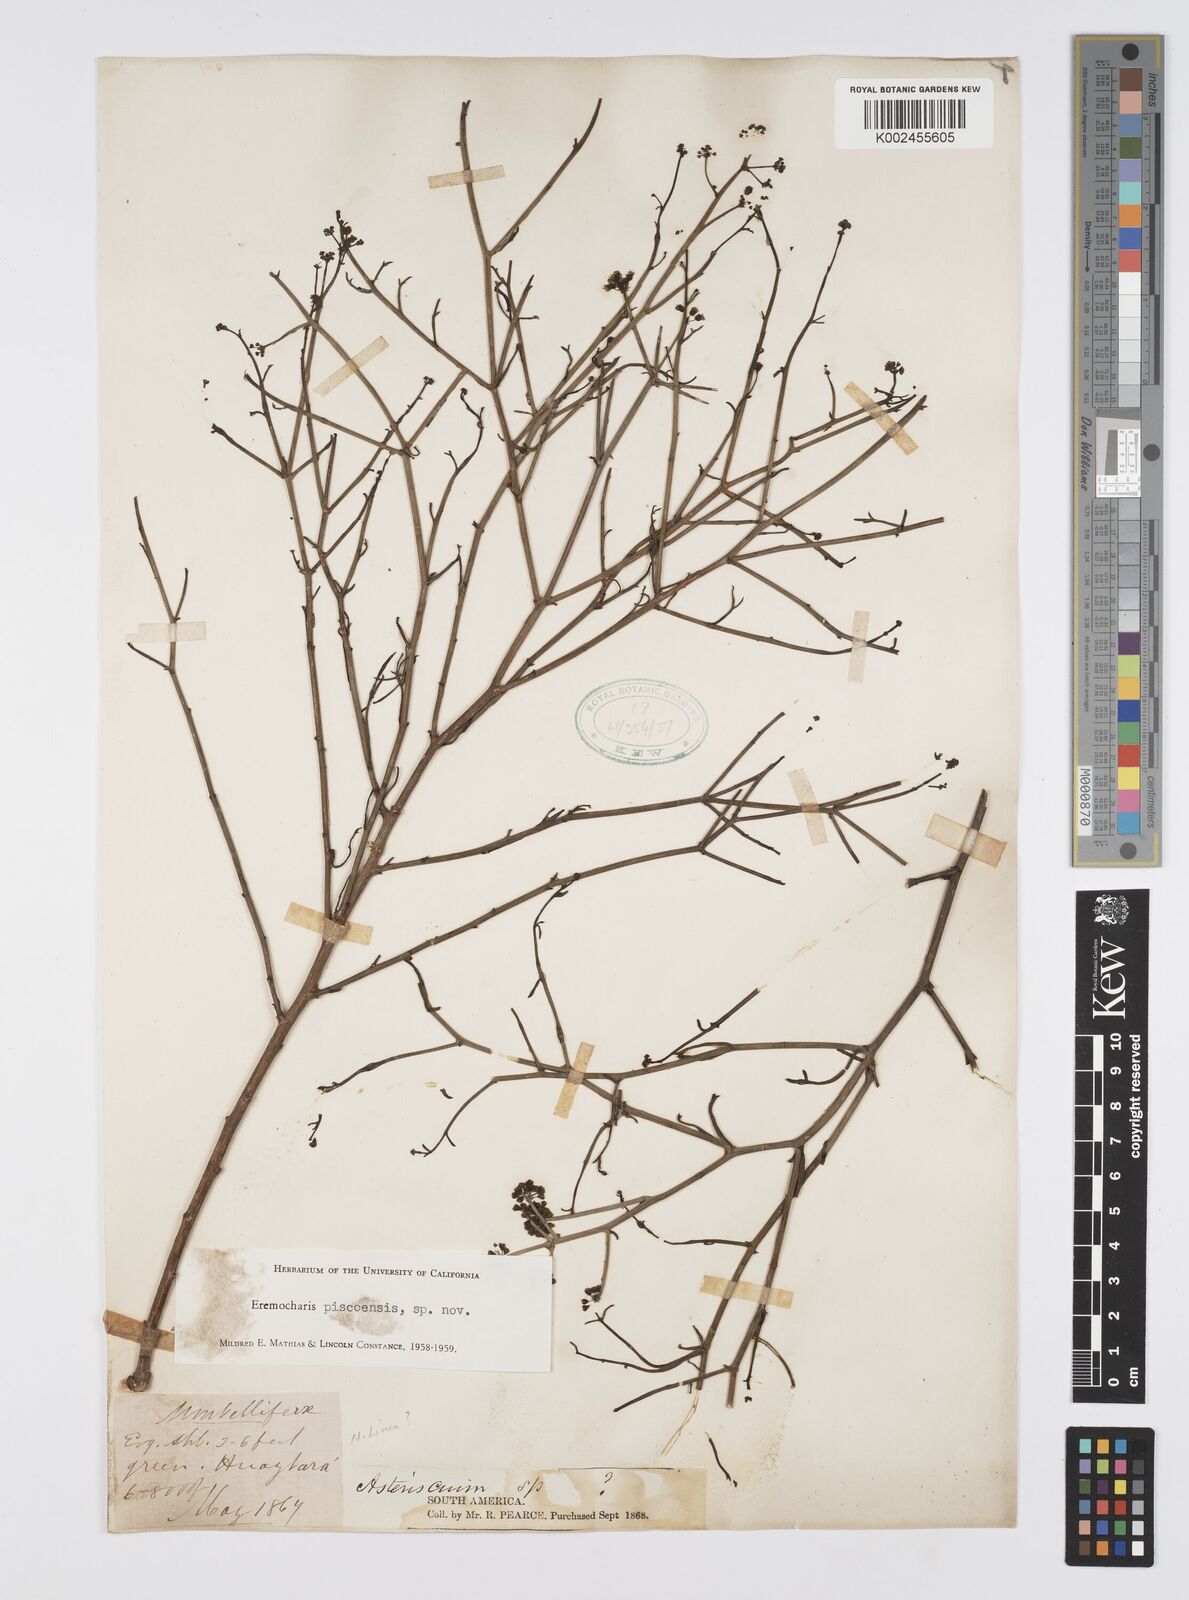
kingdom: Plantae
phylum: Tracheophyta
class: Magnoliopsida
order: Apiales
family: Apiaceae
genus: Eremocharis
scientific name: Eremocharis piscoensis
